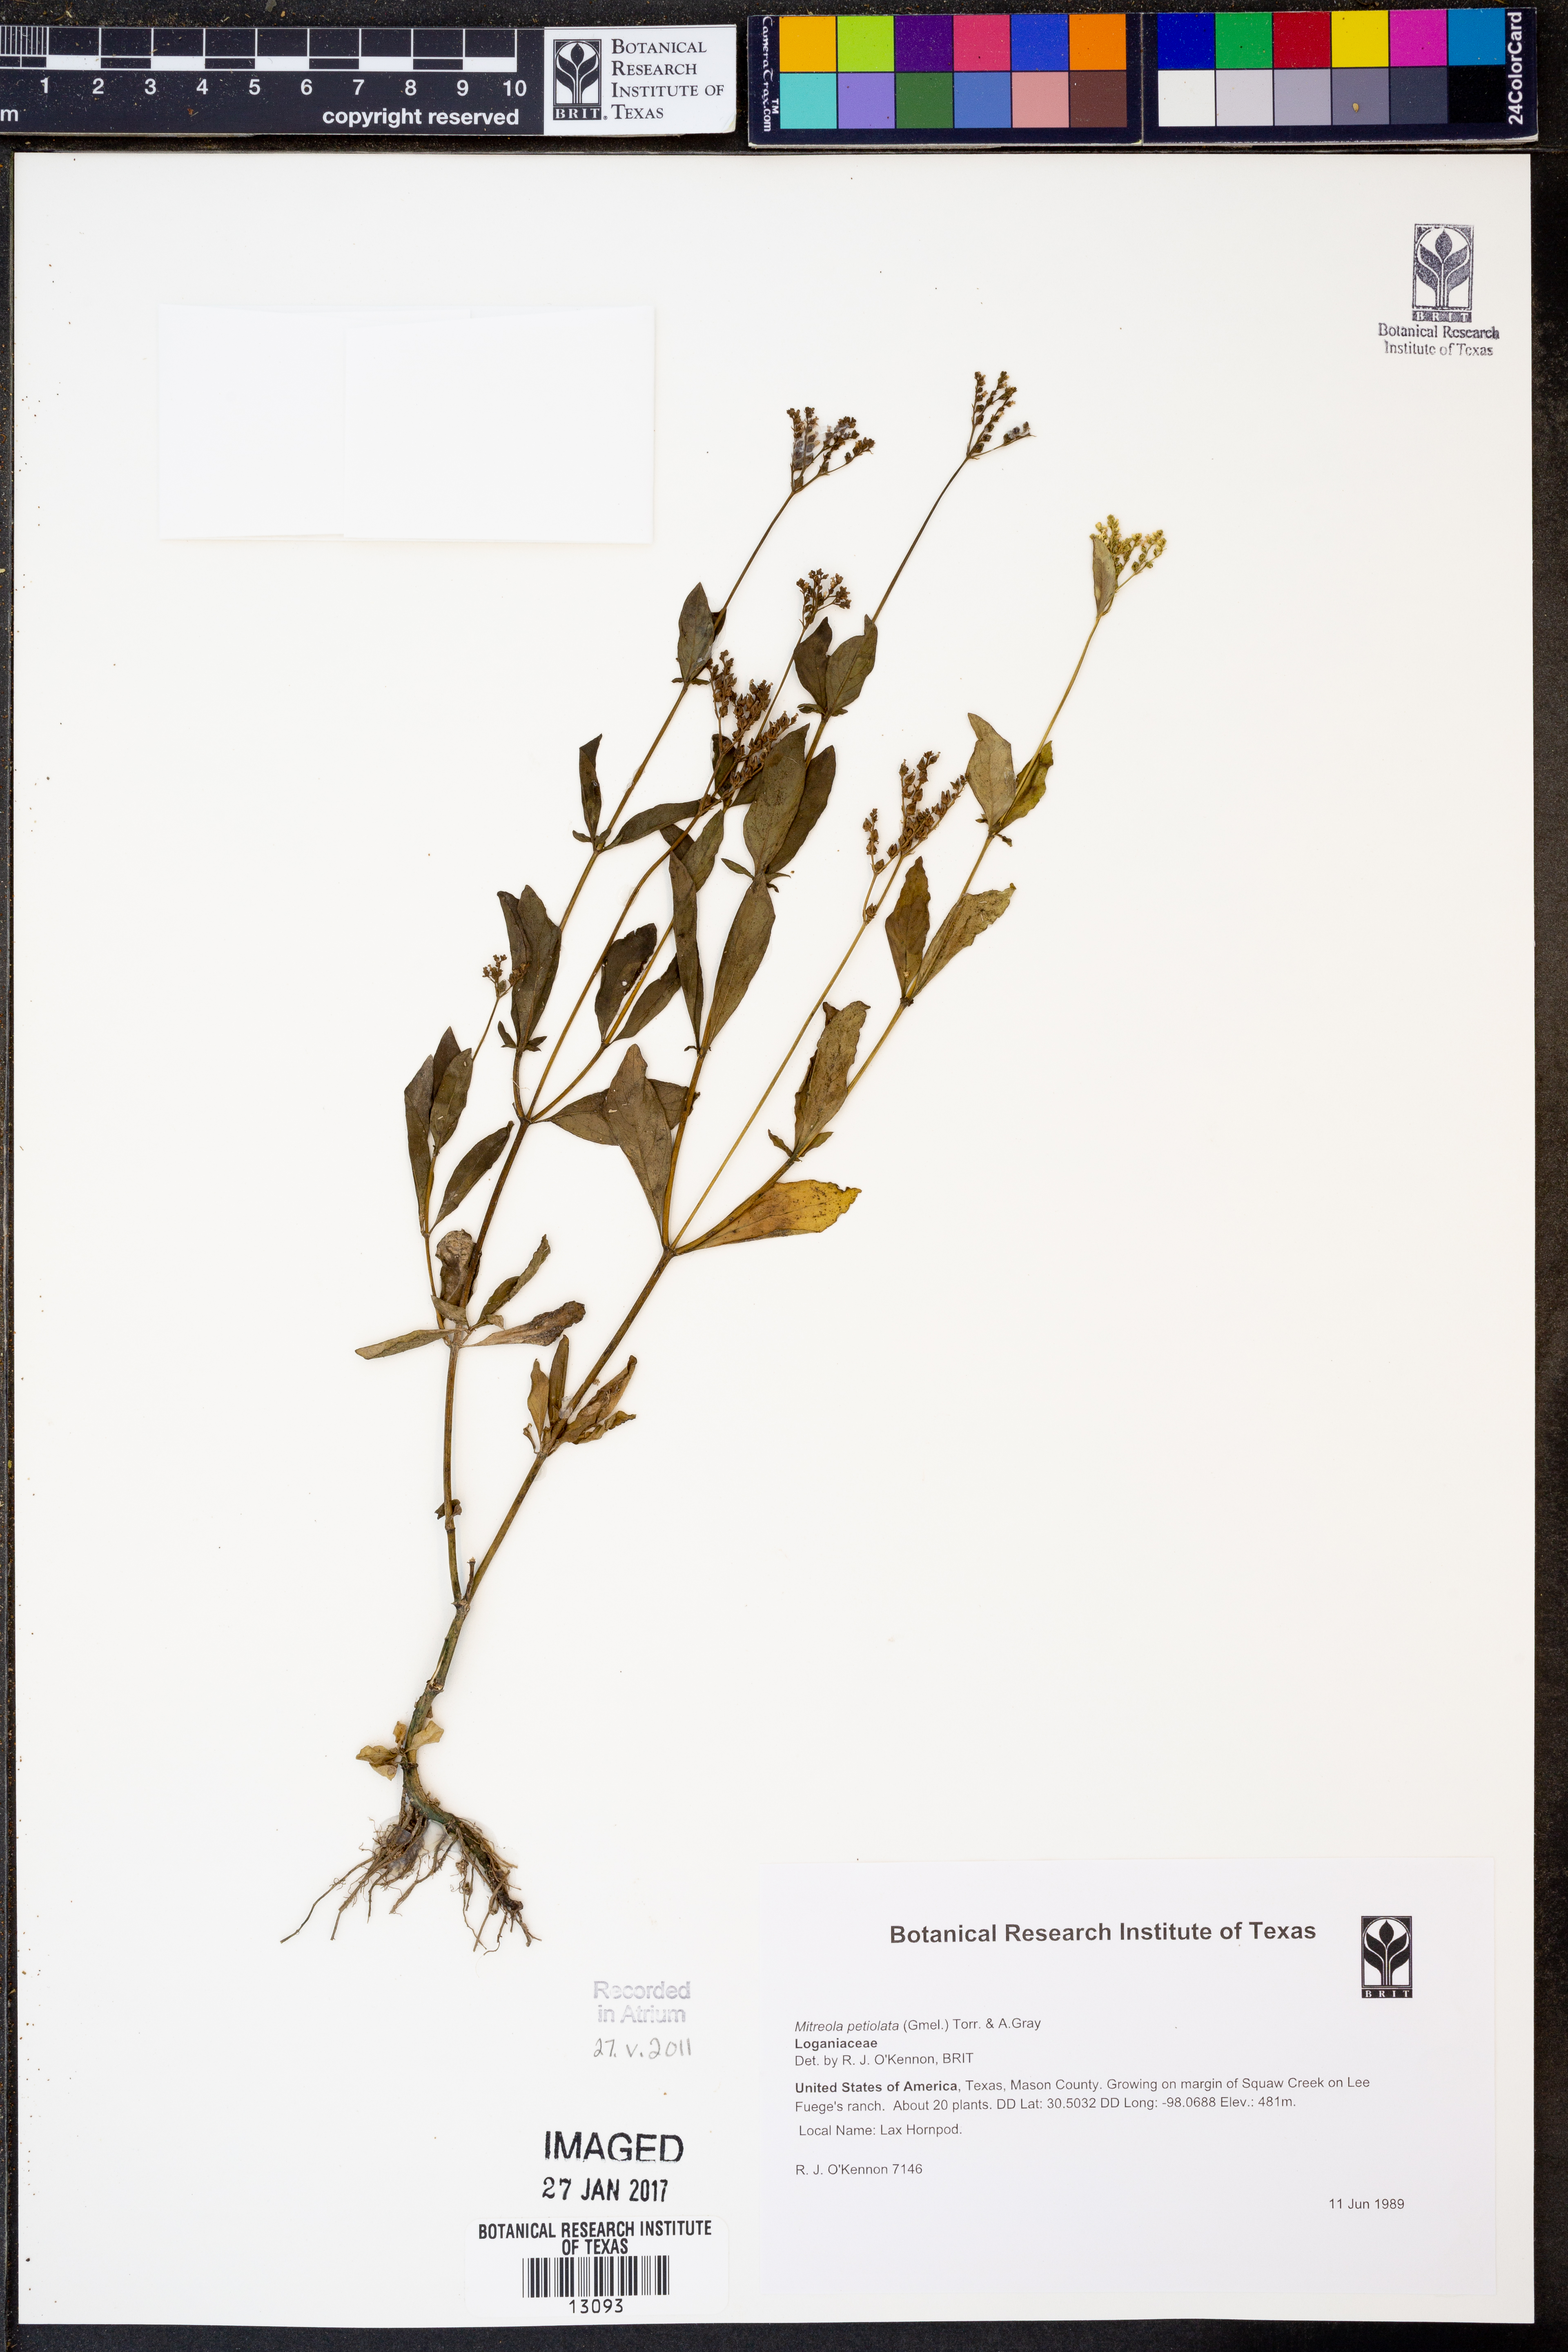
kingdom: Plantae
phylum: Tracheophyta
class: Magnoliopsida
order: Gentianales
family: Loganiaceae
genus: Mitreola
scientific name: Mitreola petiolata
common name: Lax hornpod
